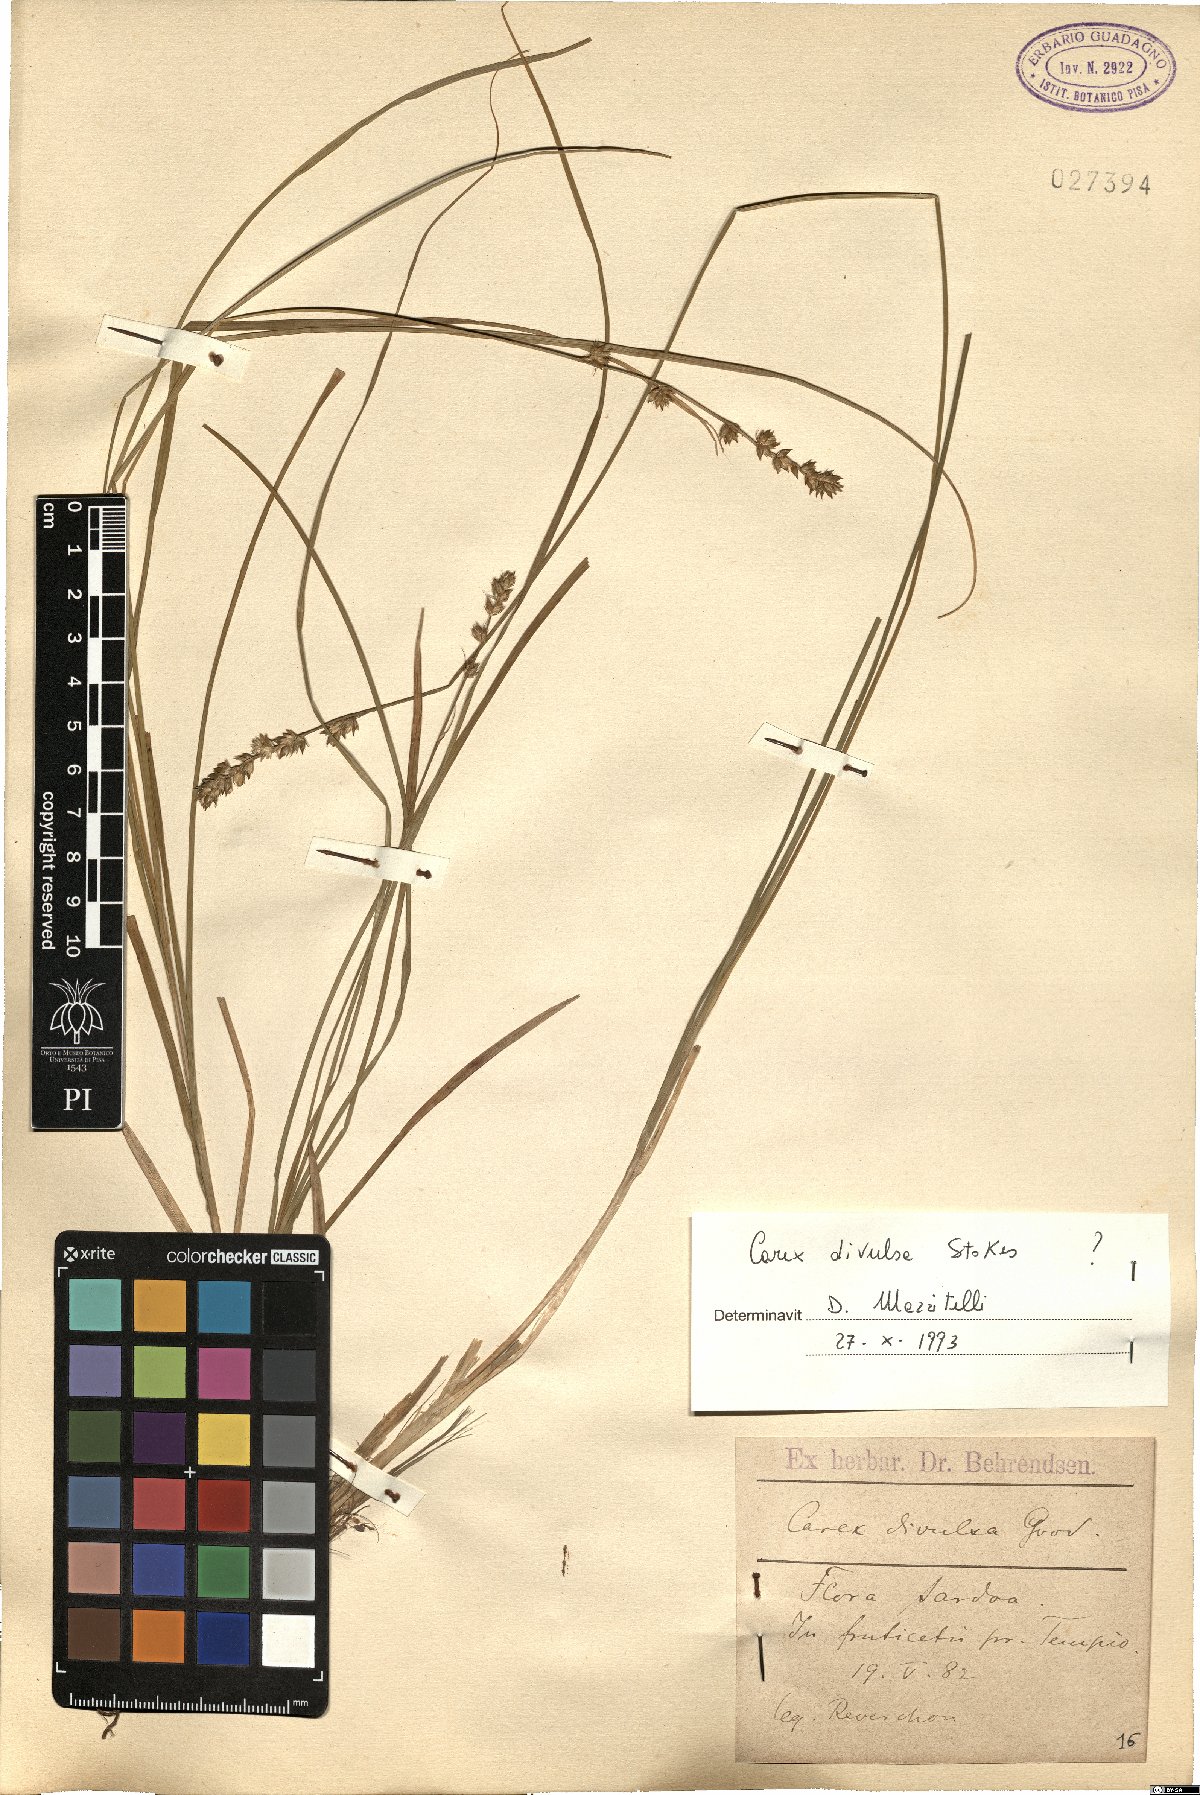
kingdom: Plantae
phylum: Tracheophyta
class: Liliopsida
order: Poales
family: Cyperaceae
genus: Carex
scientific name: Carex divulsa
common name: Grassland sedge
